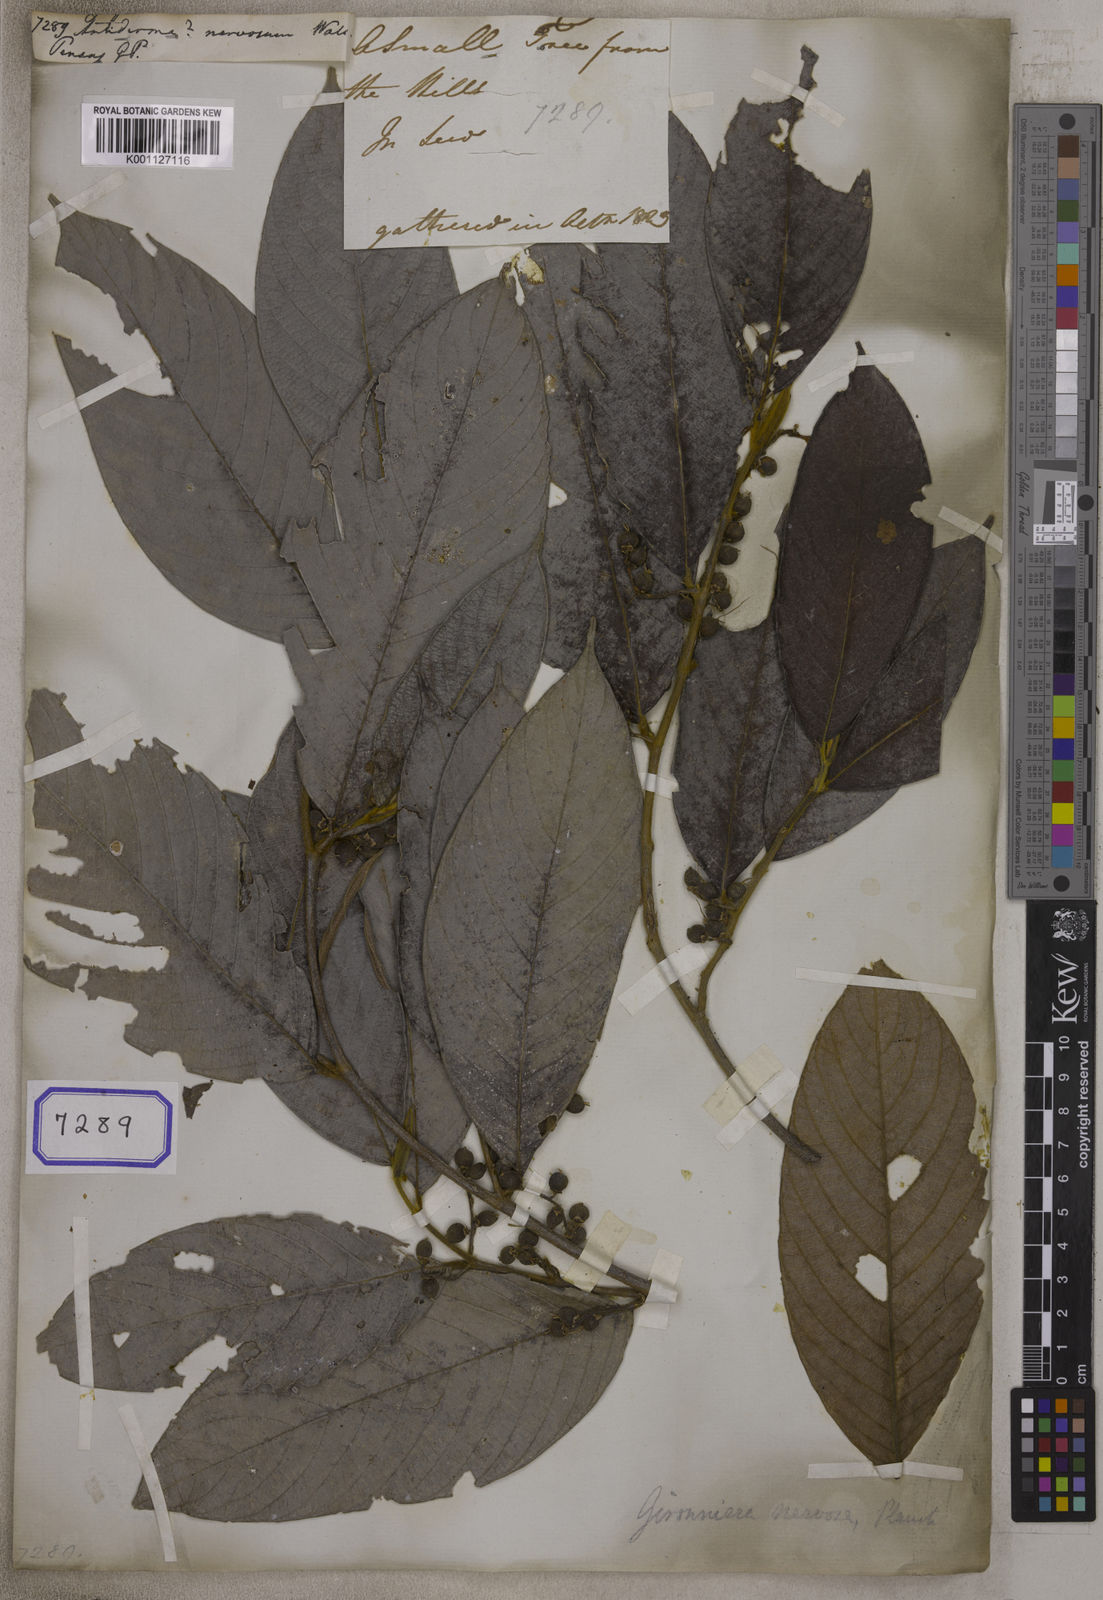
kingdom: Plantae
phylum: Tracheophyta
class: Magnoliopsida
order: Rosales
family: Cannabaceae
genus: Gironniera
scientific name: Gironniera nervosa
